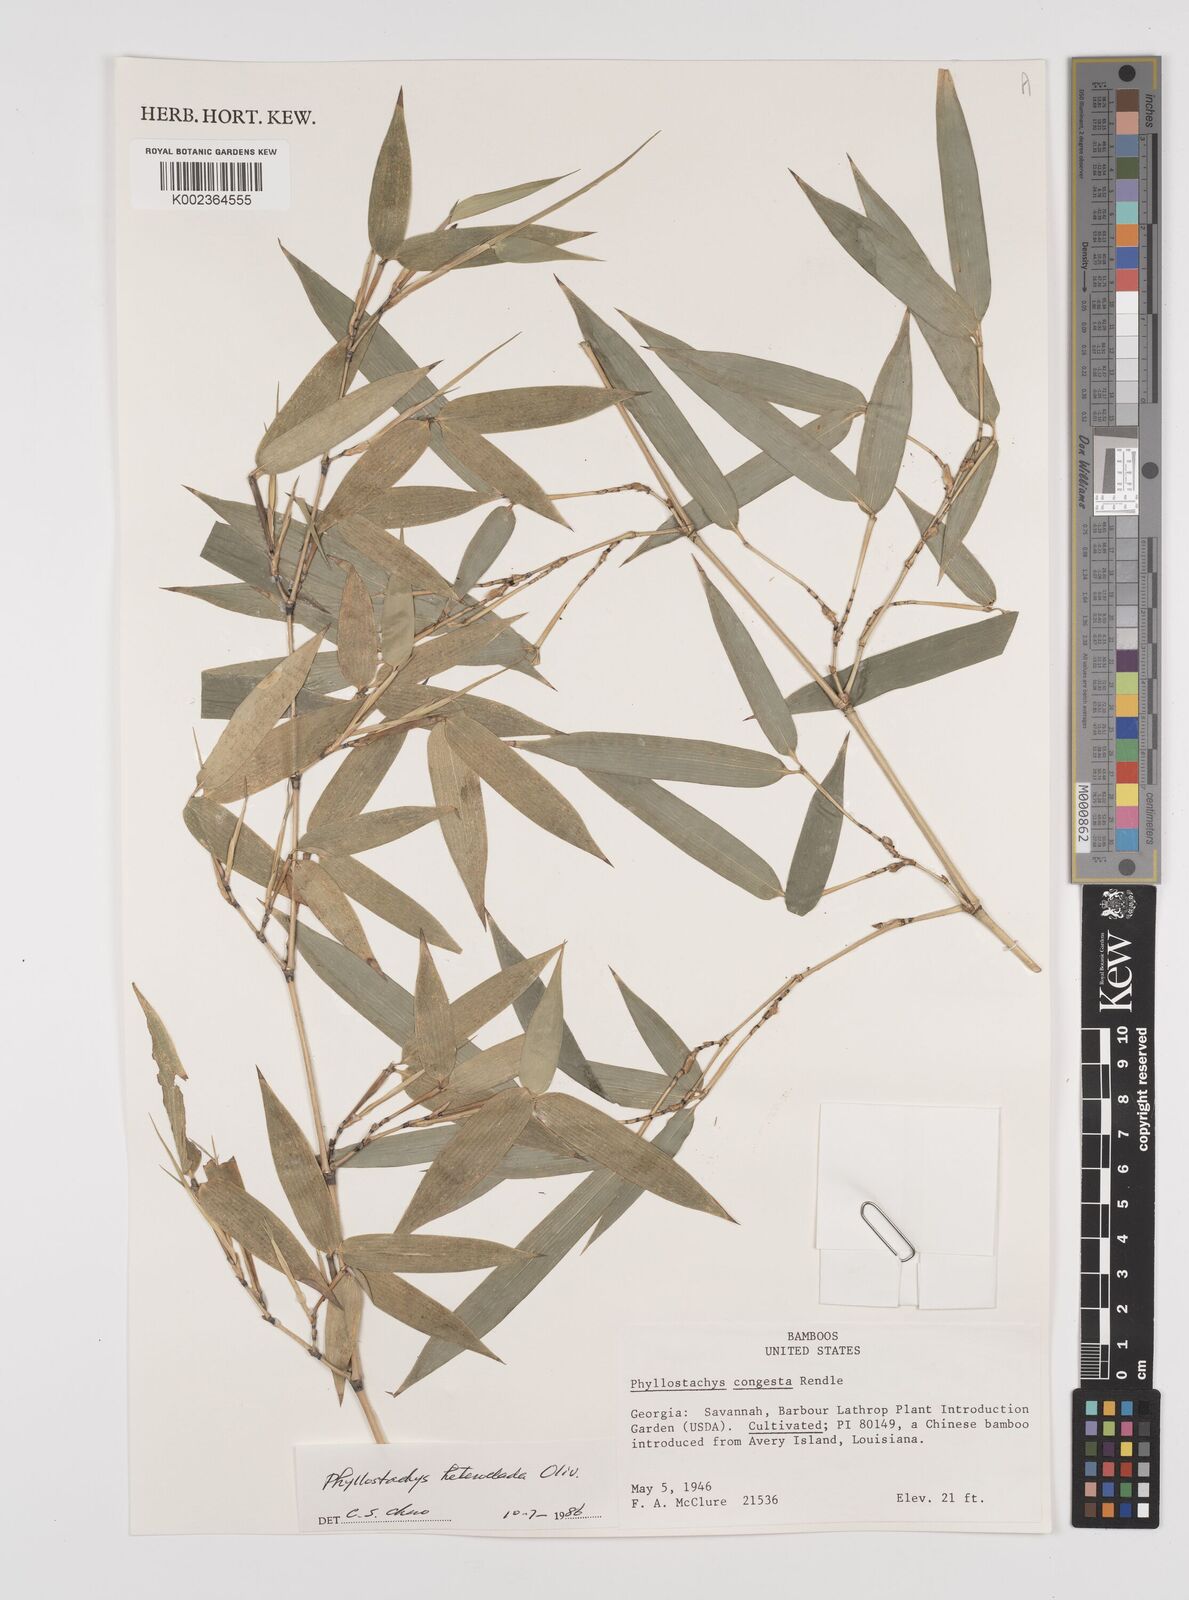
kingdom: Plantae
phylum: Tracheophyta
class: Liliopsida
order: Poales
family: Poaceae
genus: Phyllostachys
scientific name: Phyllostachys heteroclada
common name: Fishscale bamboo
